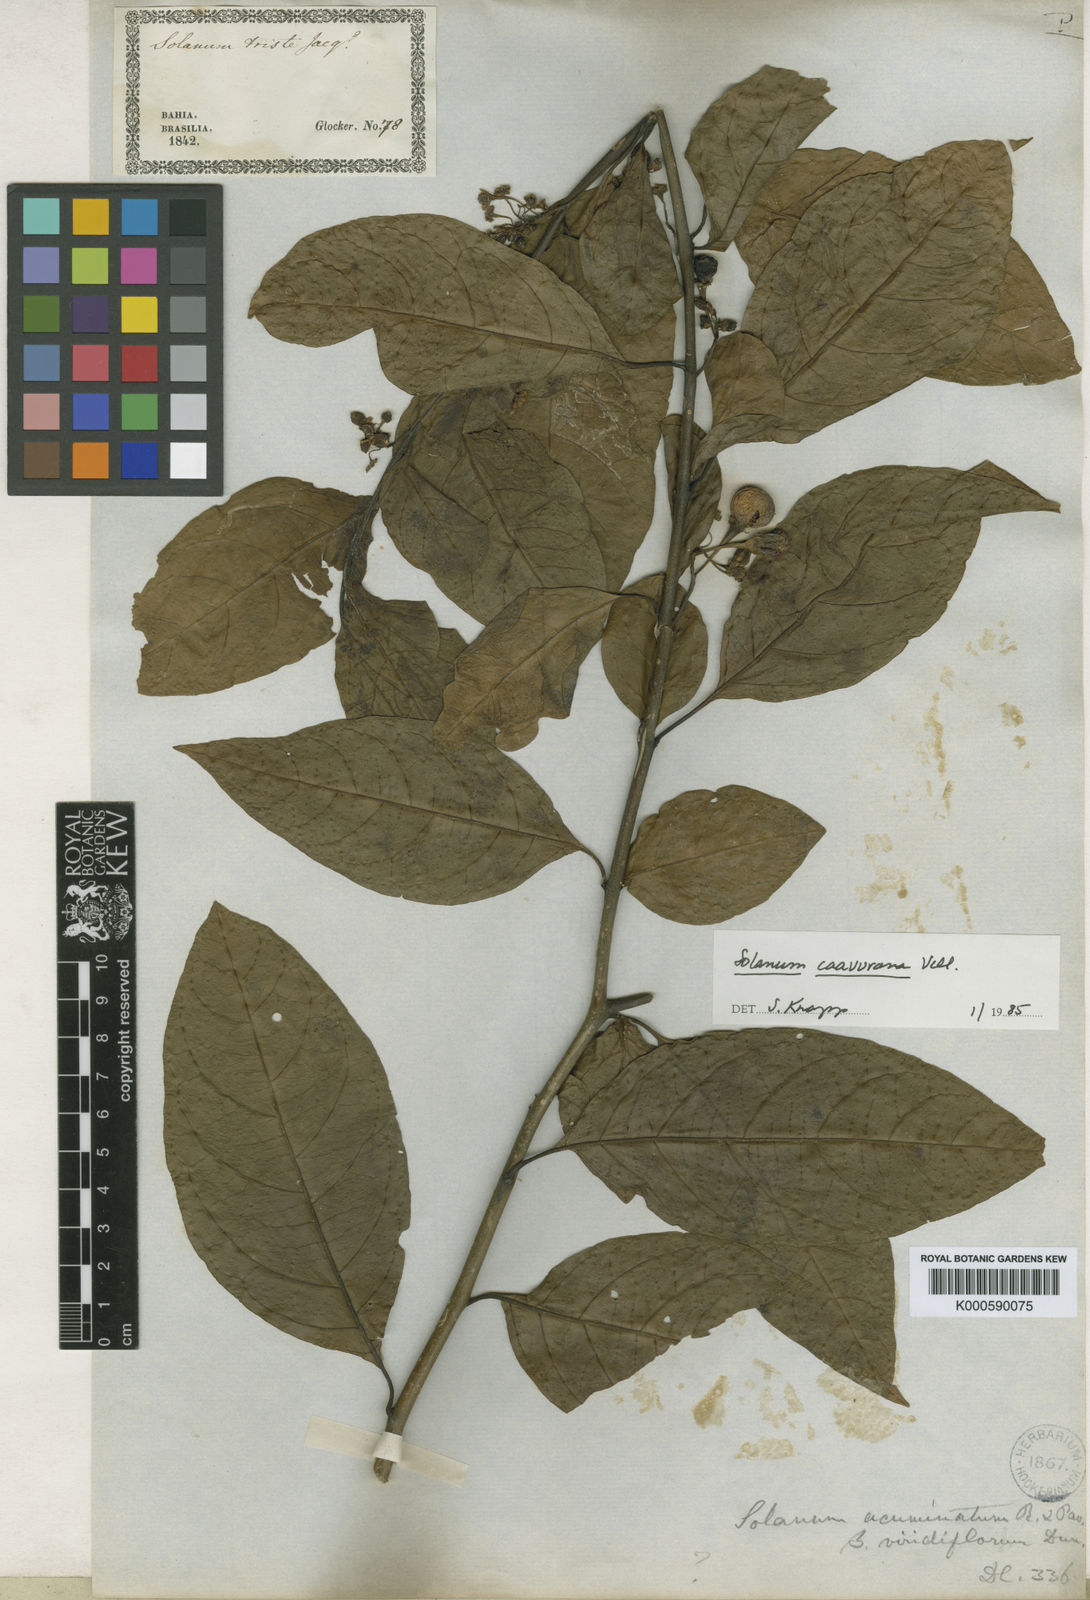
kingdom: Plantae
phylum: Tracheophyta
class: Magnoliopsida
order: Solanales
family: Solanaceae
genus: Solanum
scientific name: Solanum caavurana
